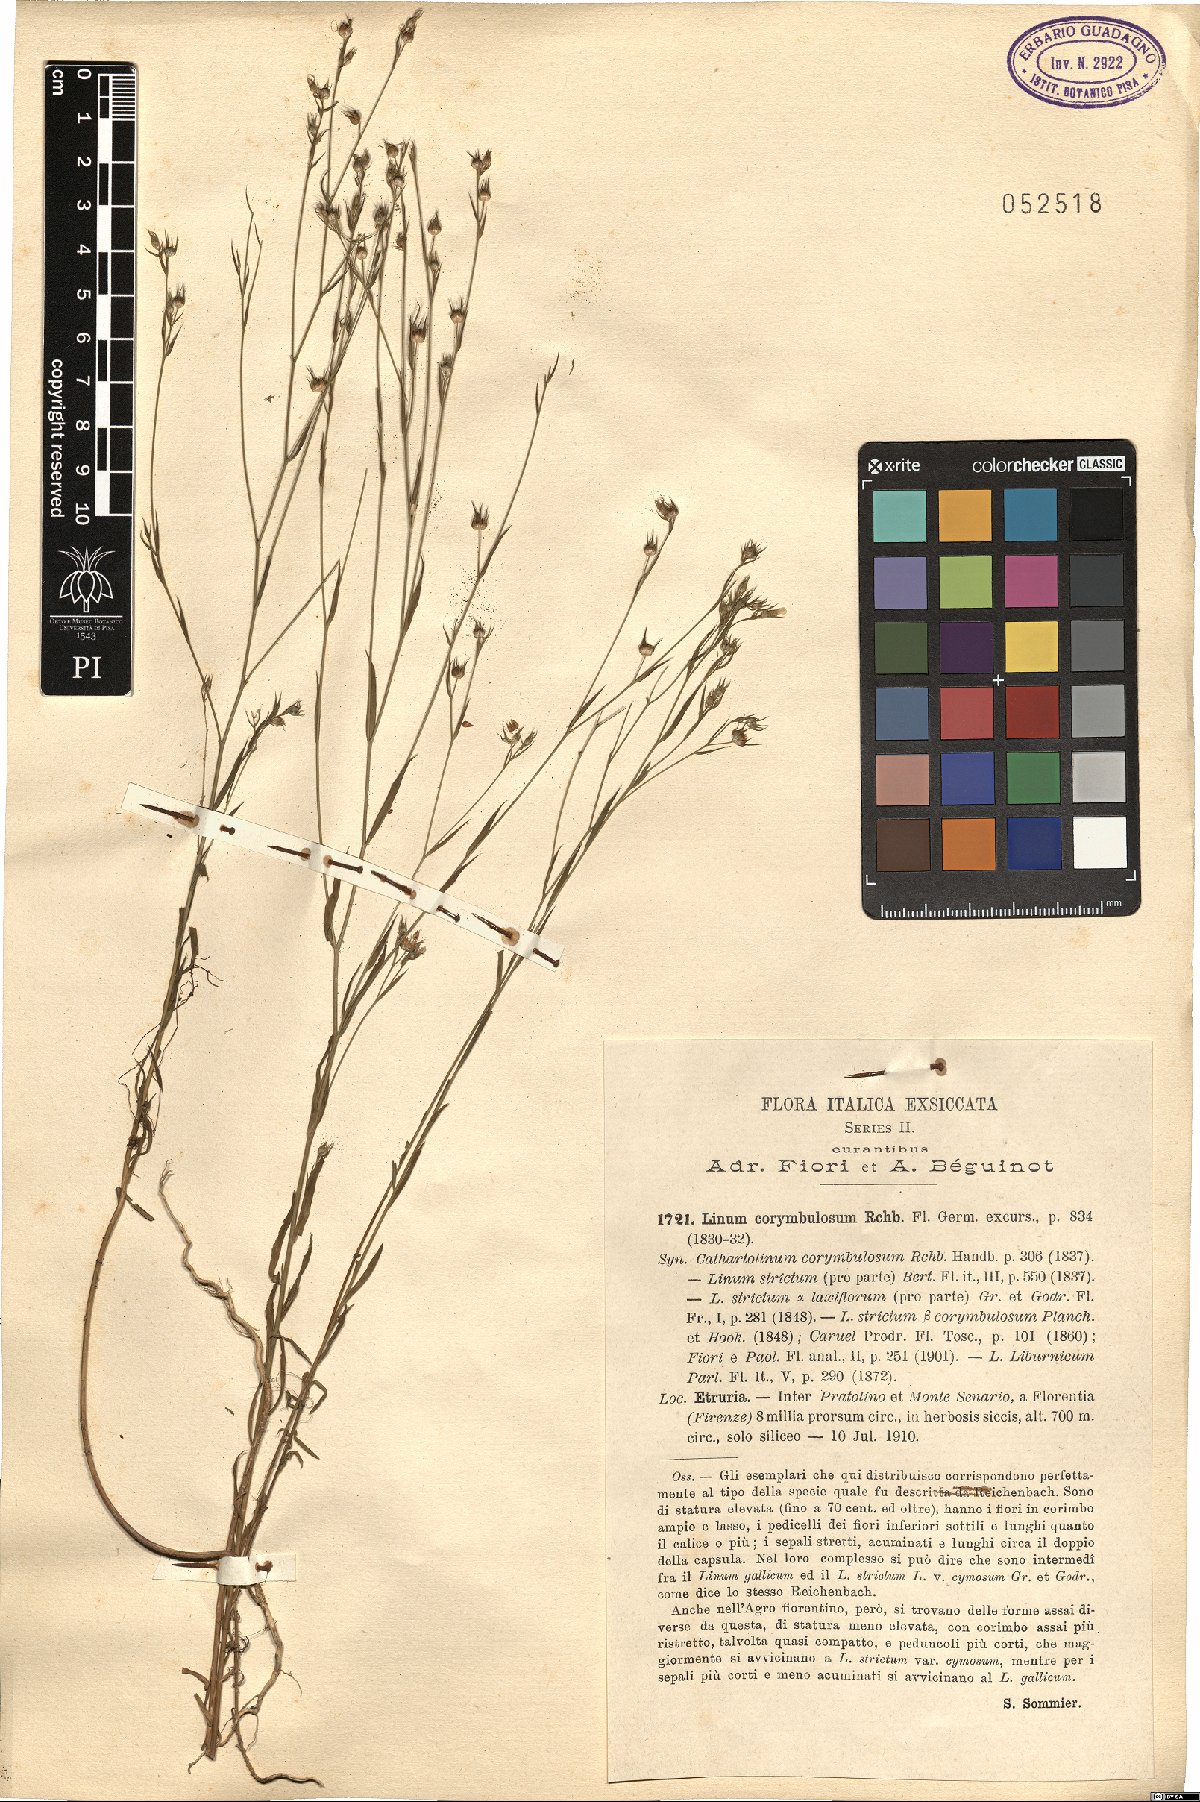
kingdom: Plantae
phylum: Tracheophyta
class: Magnoliopsida
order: Malpighiales
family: Linaceae
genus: Linum
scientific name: Linum corymbulosum
